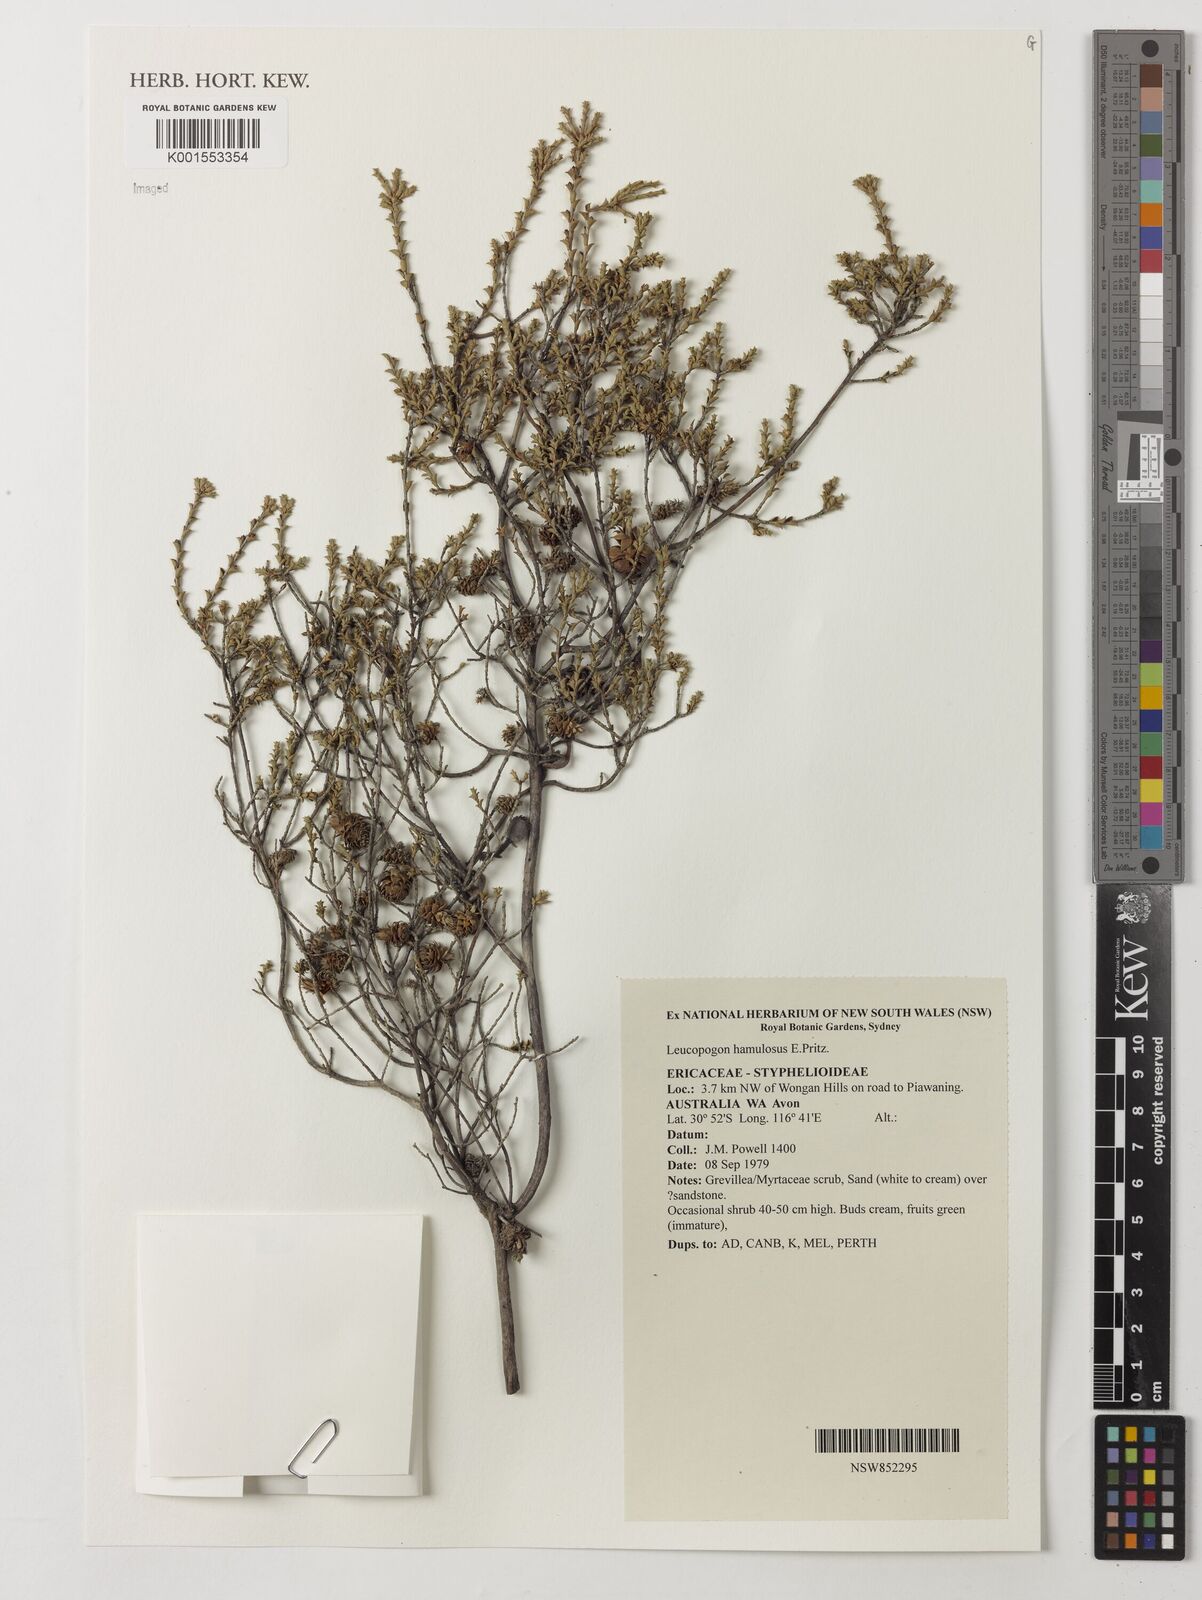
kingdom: Plantae
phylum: Tracheophyta
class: Magnoliopsida
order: Ericales
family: Ericaceae
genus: Styphelia
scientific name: Styphelia hamulosa
